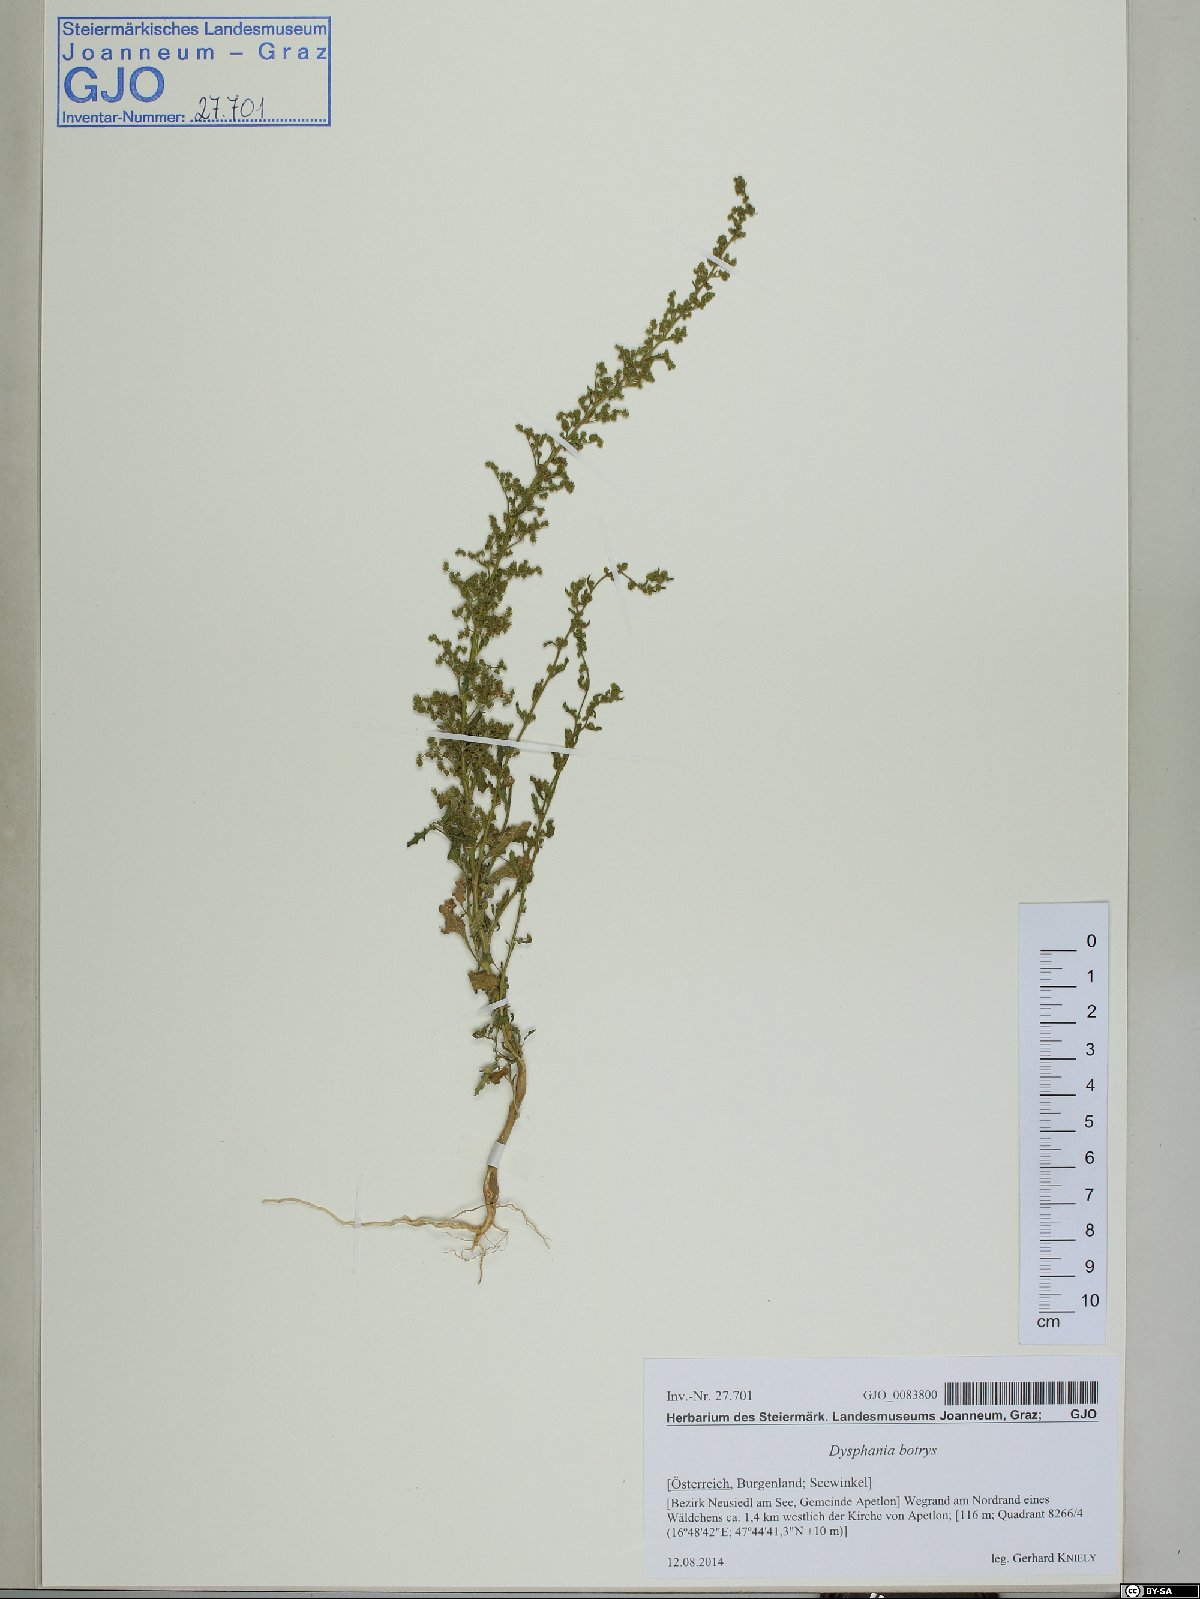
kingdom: Plantae
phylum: Tracheophyta
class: Magnoliopsida
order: Caryophyllales
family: Amaranthaceae
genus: Dysphania
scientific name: Dysphania botrys
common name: Feather-geranium
